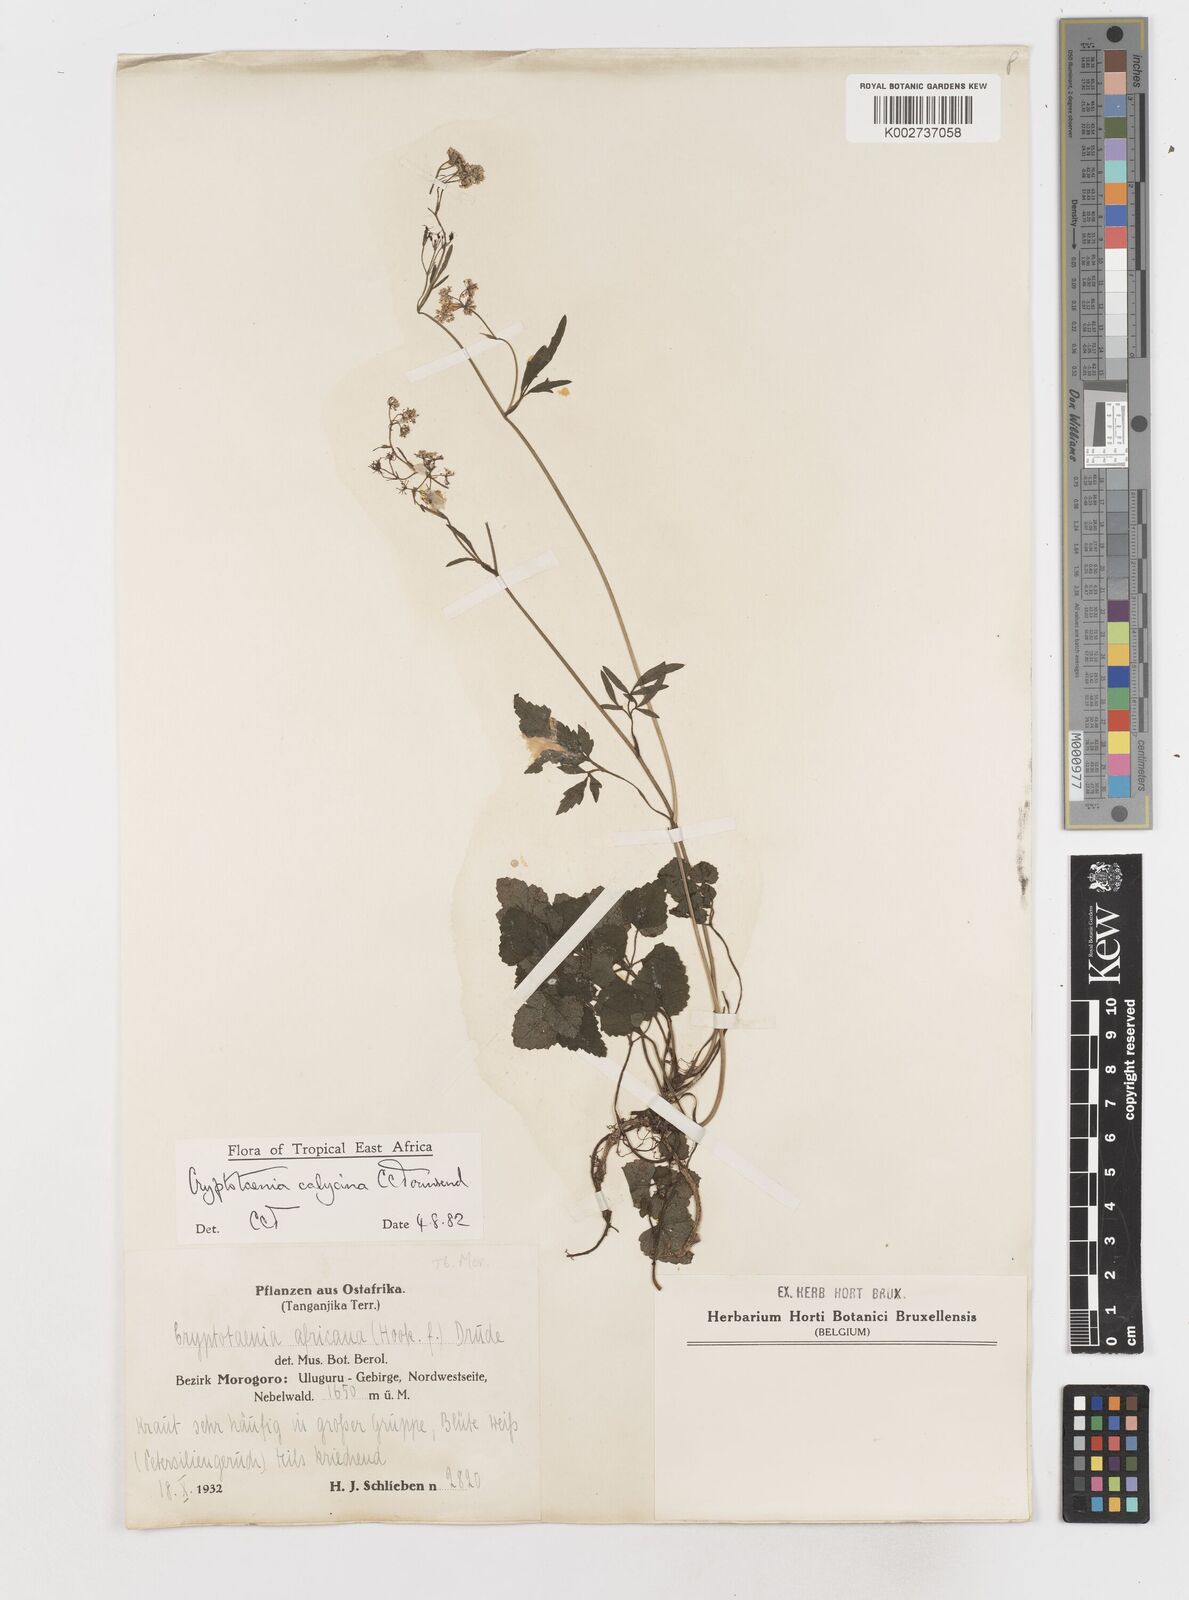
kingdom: Plantae
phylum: Tracheophyta
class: Magnoliopsida
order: Apiales
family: Apiaceae
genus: Cryptotaenia
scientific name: Cryptotaenia calycina
